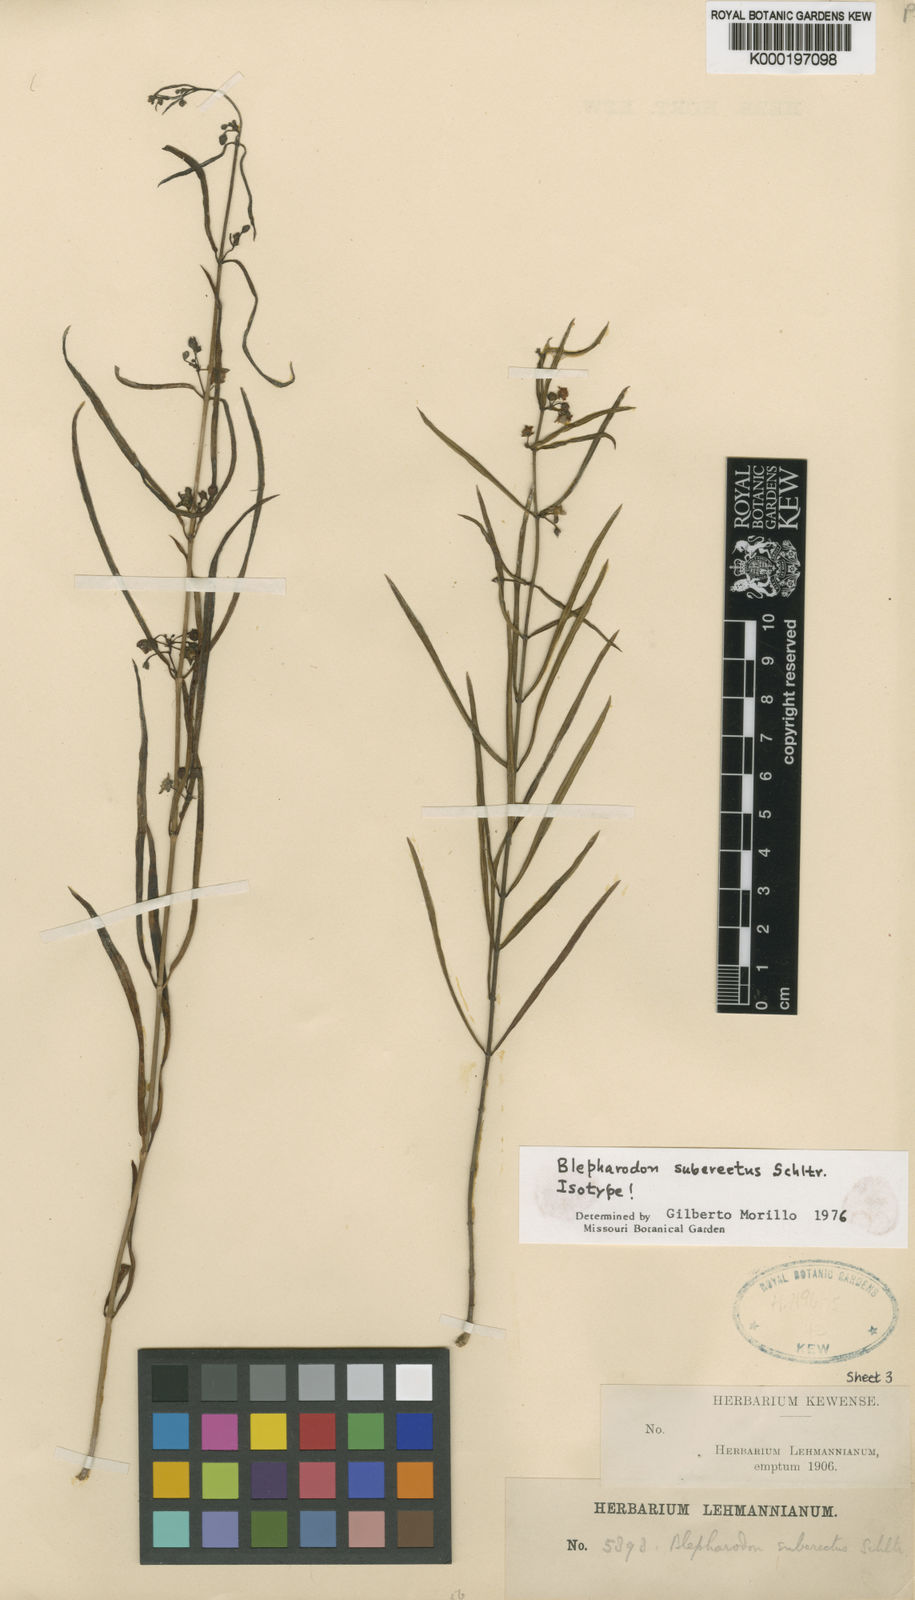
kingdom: Plantae
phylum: Tracheophyta
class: Magnoliopsida
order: Gentianales
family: Apocynaceae
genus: Blepharodon
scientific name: Blepharodon suberectum
